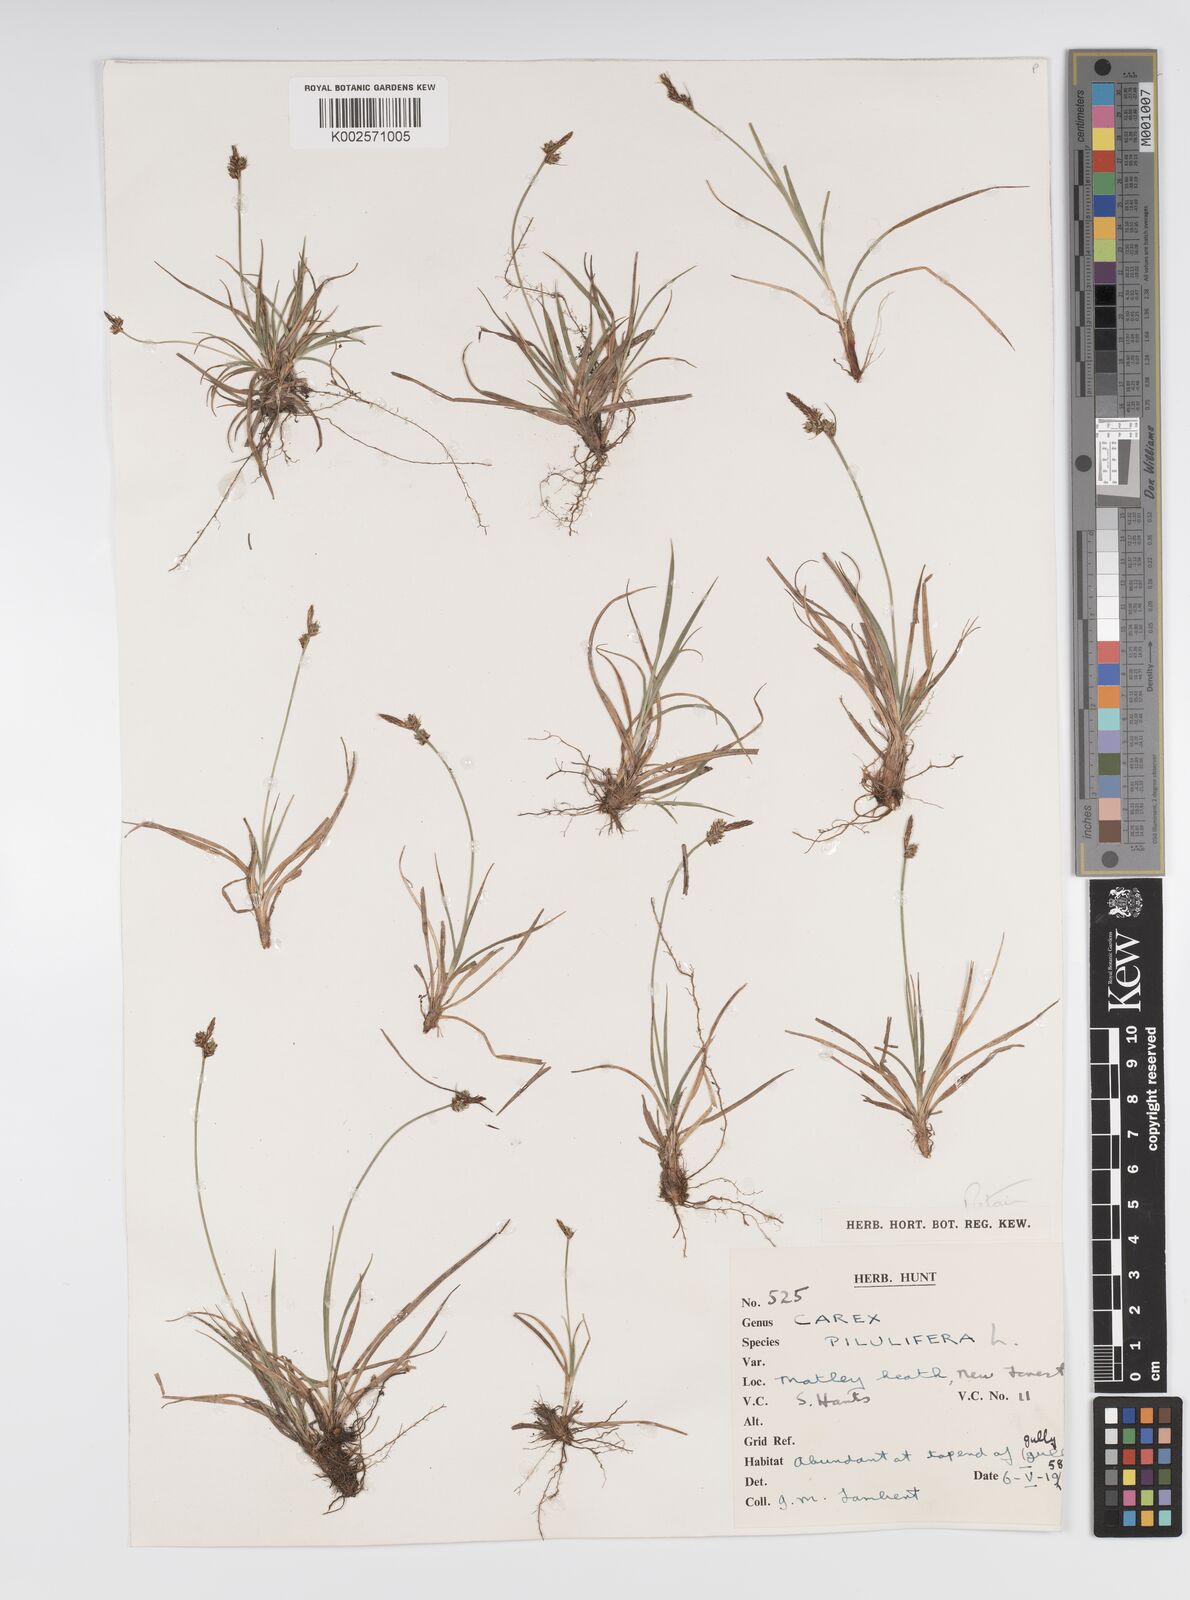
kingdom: Plantae
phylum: Tracheophyta
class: Liliopsida
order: Poales
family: Cyperaceae
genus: Carex
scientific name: Carex praecox
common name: Early sedge
